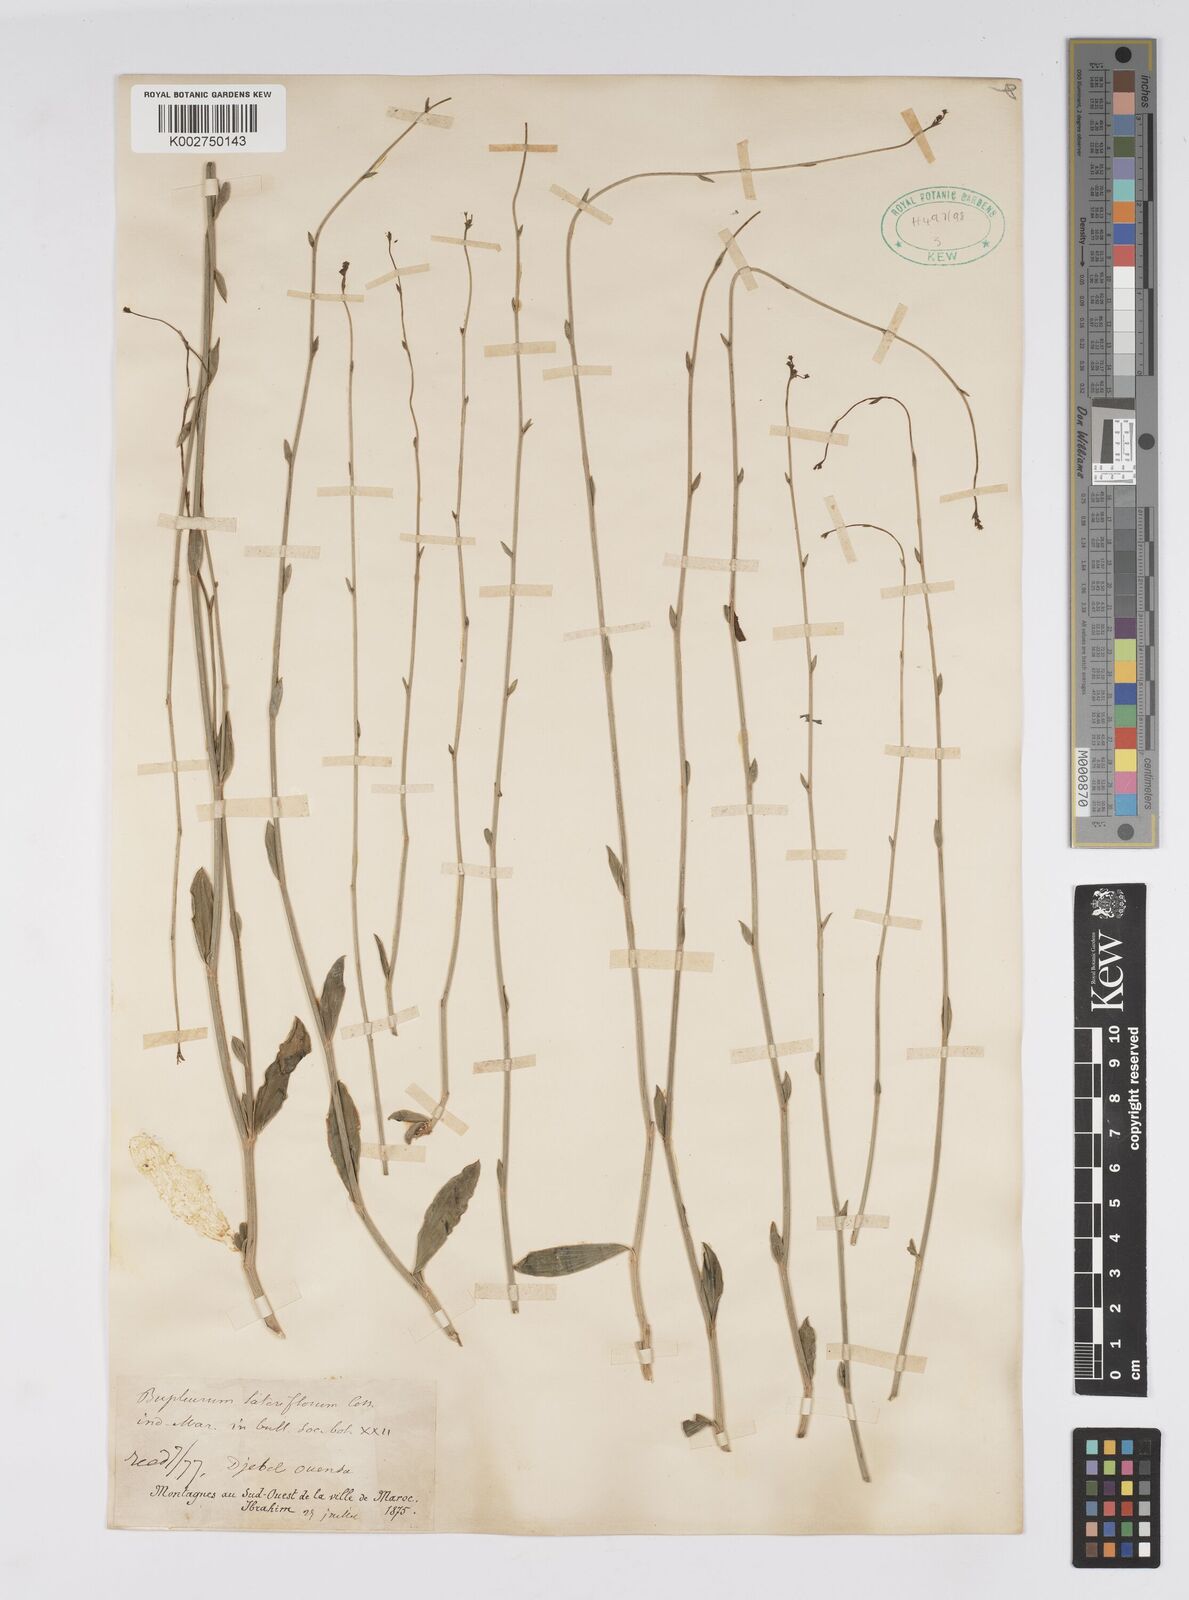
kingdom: Plantae
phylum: Tracheophyta
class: Magnoliopsida
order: Apiales
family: Apiaceae
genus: Bupleurum
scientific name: Bupleurum lateriflorum
